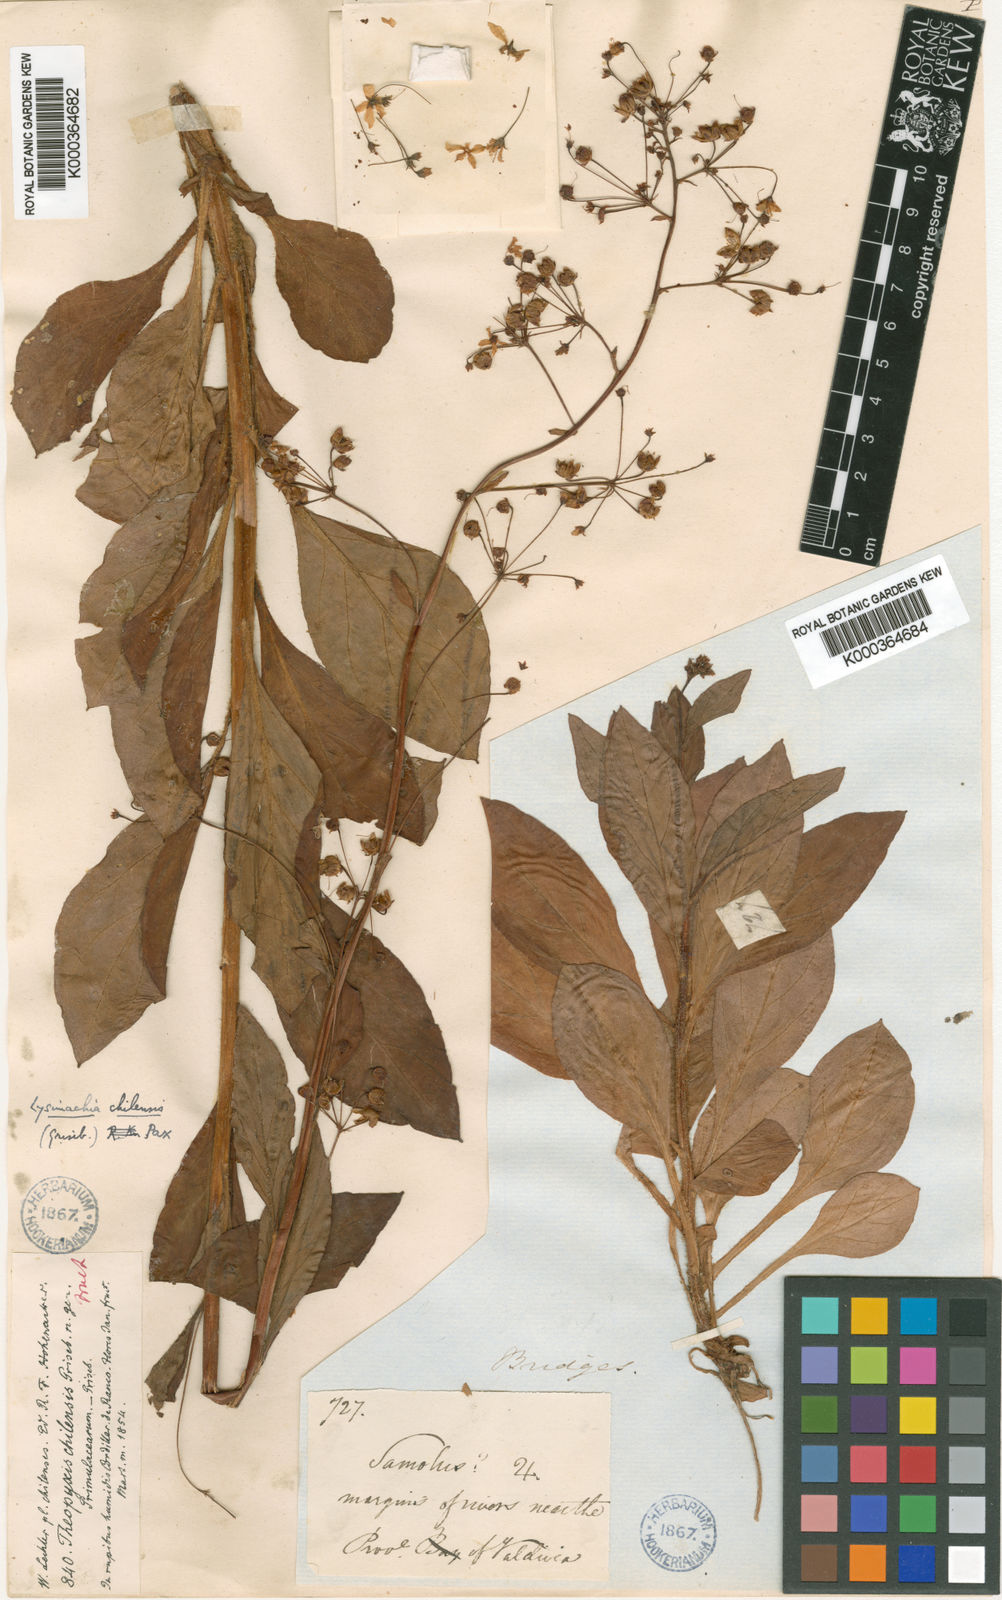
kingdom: Plantae
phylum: Tracheophyta
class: Magnoliopsida
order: Ericales
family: Primulaceae
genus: Lysimachia
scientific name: Lysimachia sertulata
